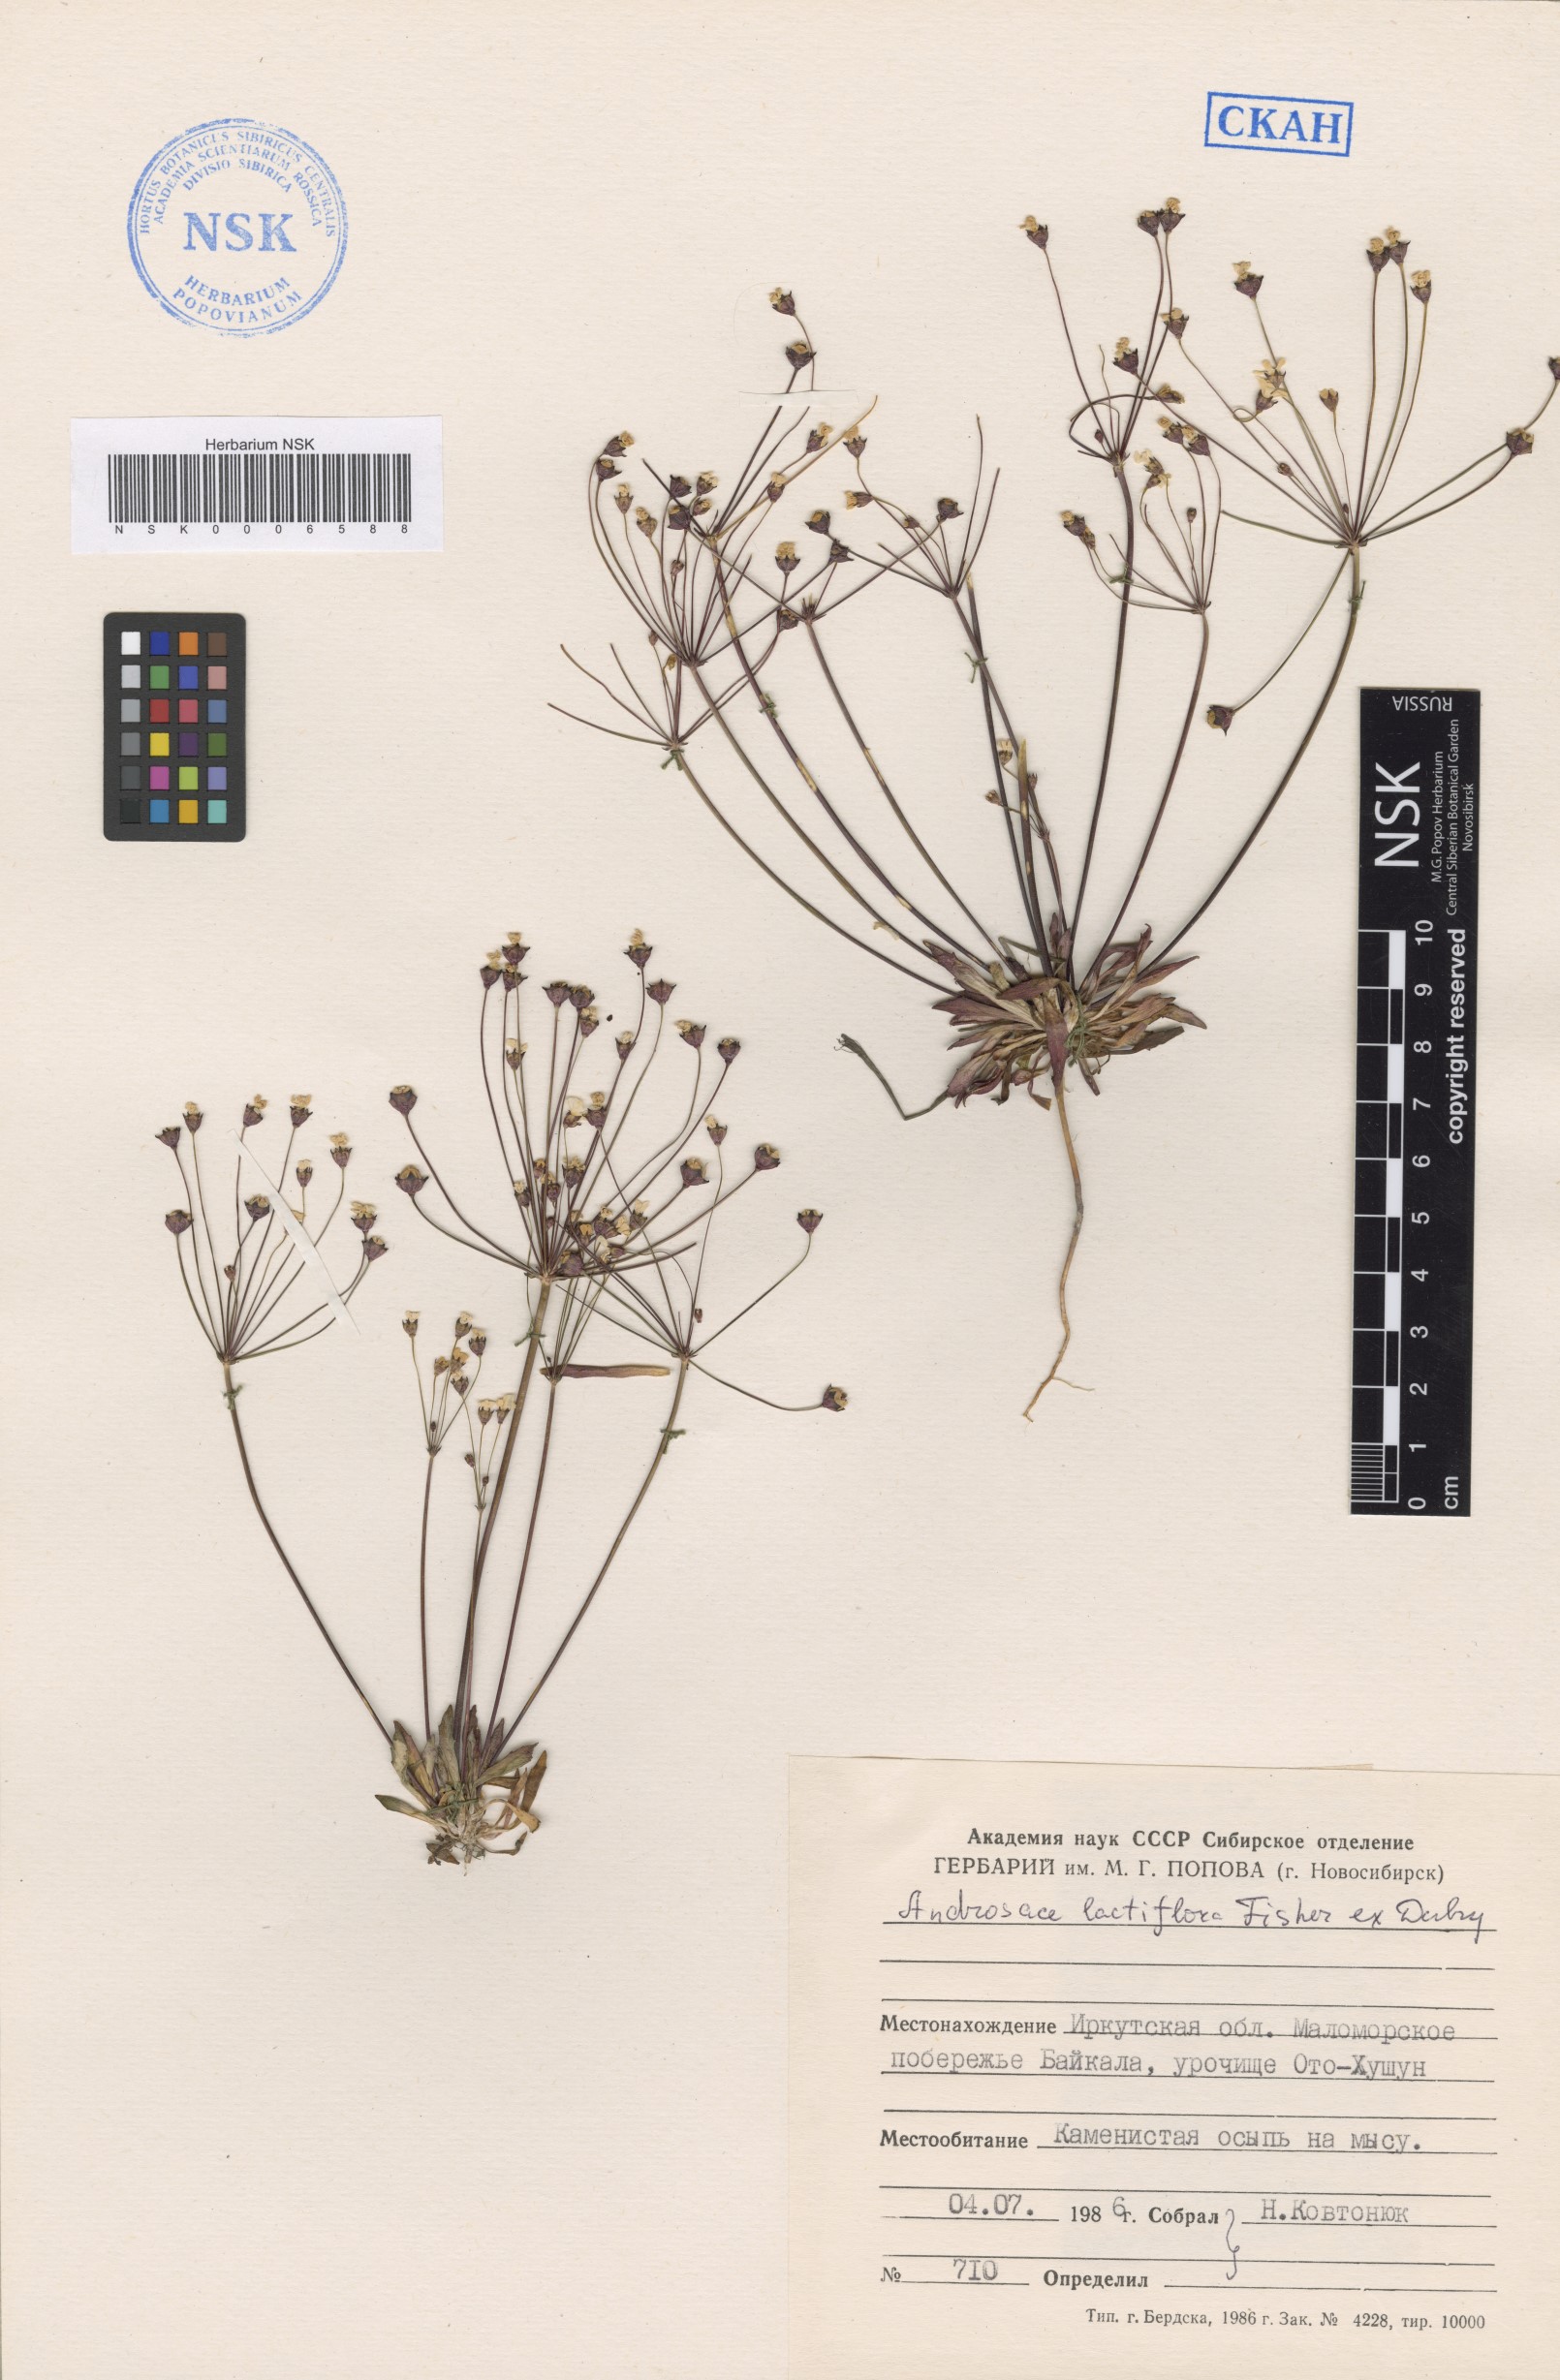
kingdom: Plantae
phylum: Tracheophyta
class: Magnoliopsida
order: Ericales
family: Primulaceae
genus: Androsace
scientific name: Androsace lactiflora
